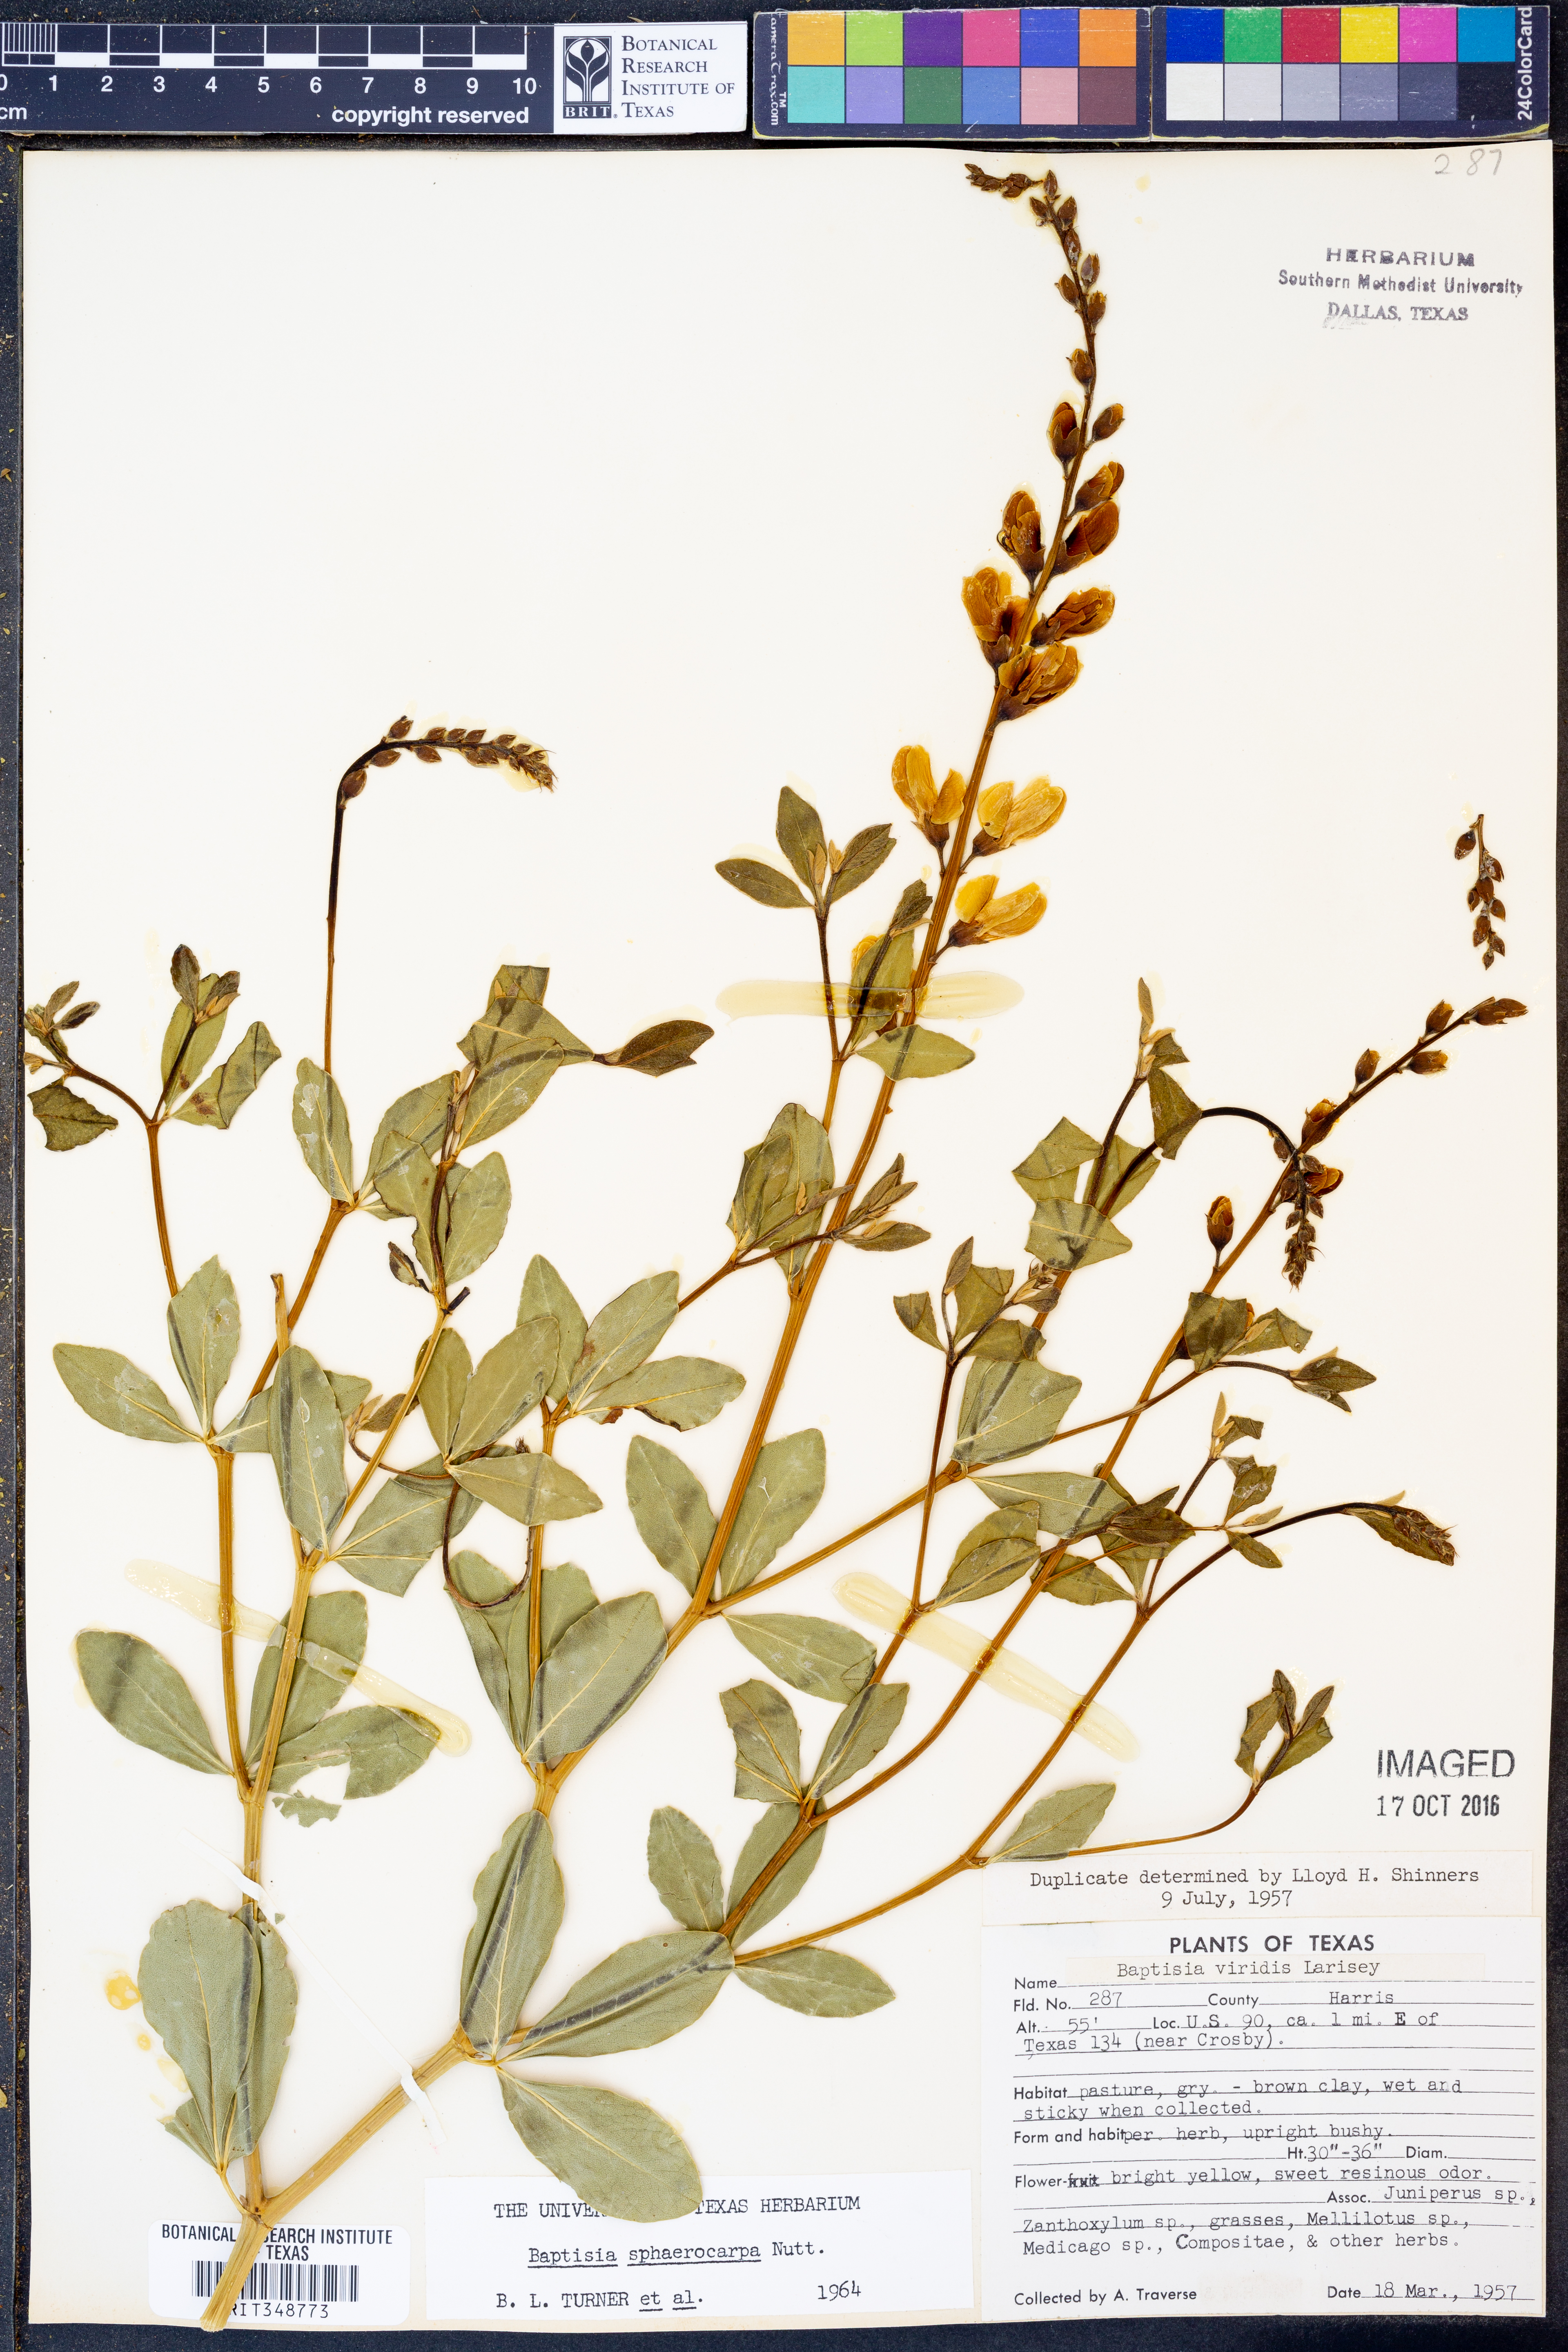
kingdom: Plantae
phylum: Tracheophyta
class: Magnoliopsida
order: Fabales
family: Fabaceae
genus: Baptisia
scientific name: Baptisia sphaerocarpa
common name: Round wild indigo
